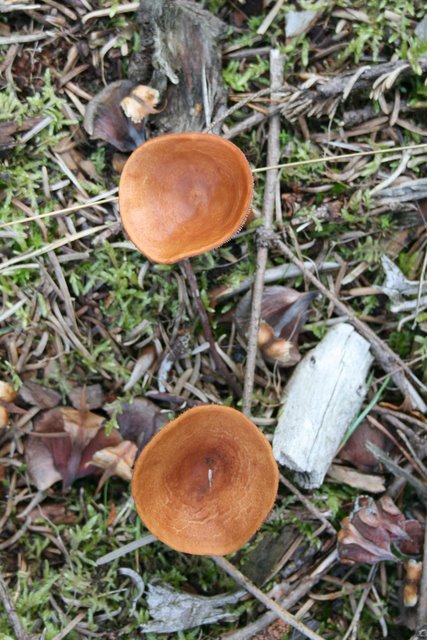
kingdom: Fungi
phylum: Basidiomycota
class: Agaricomycetes
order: Russulales
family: Russulaceae
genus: Lactarius
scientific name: Lactarius aurantiacus
